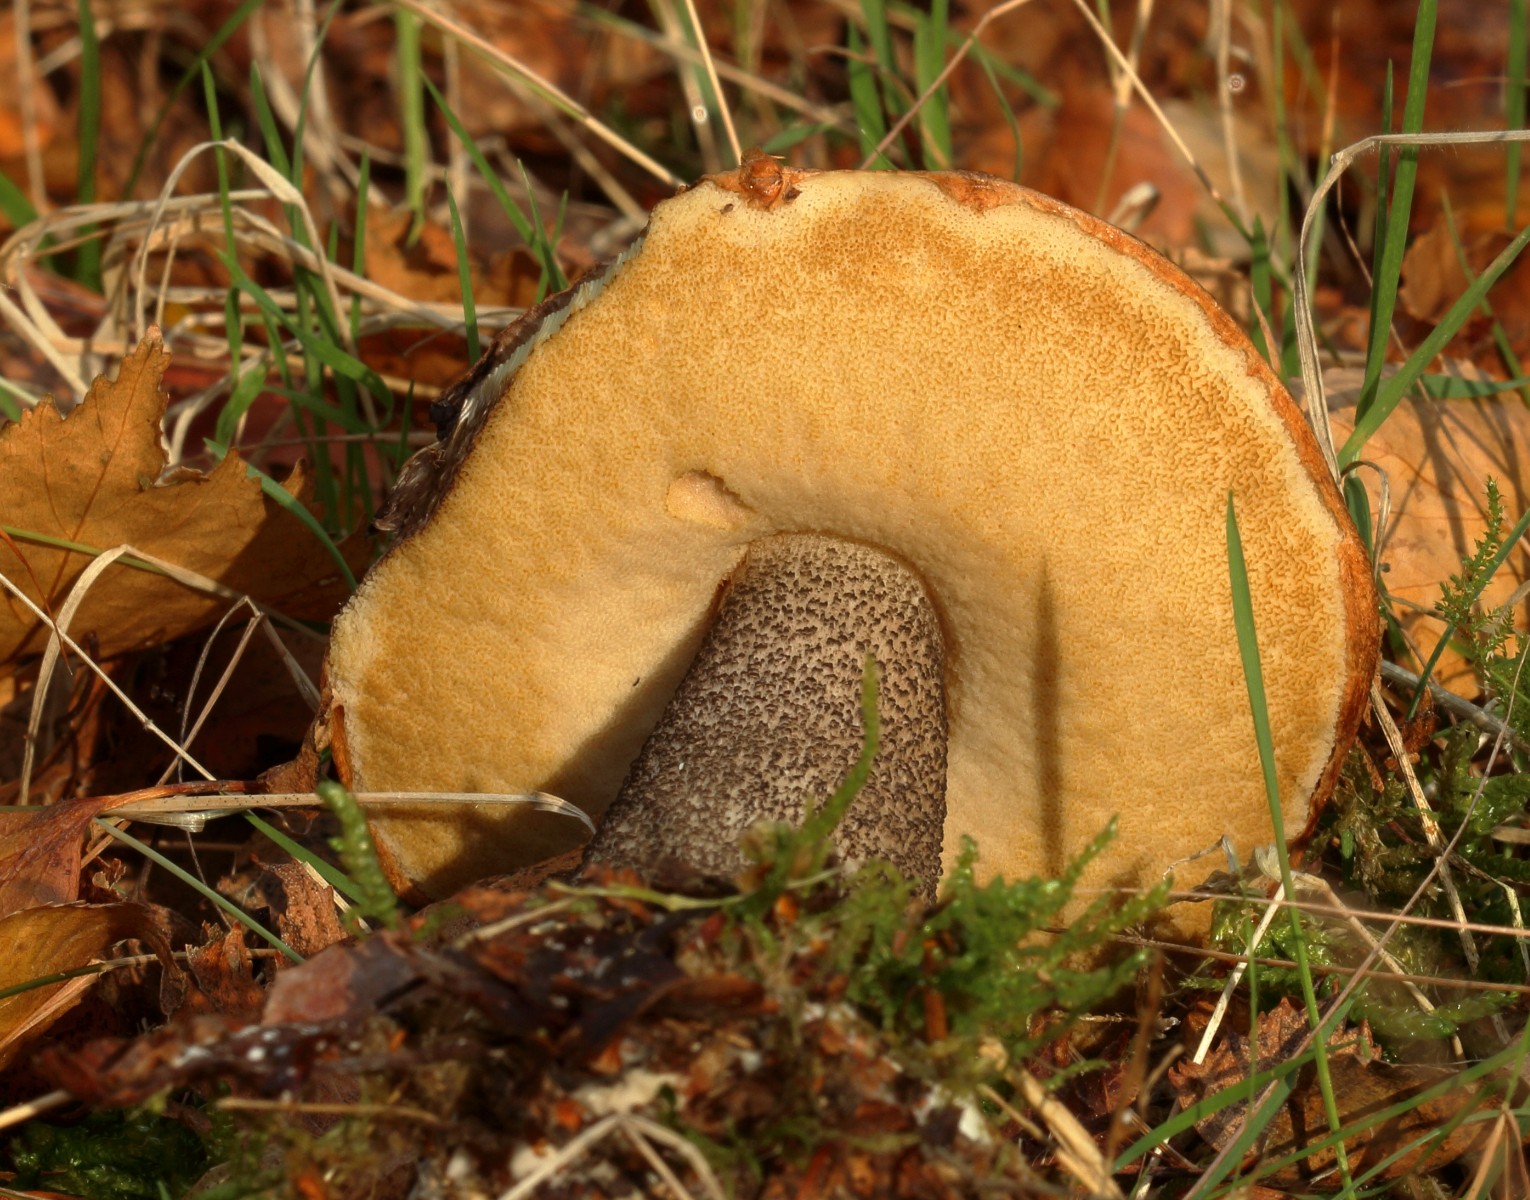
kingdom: Fungi
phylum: Basidiomycota
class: Agaricomycetes
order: Boletales
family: Boletaceae
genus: Leccinum
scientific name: Leccinum versipelle
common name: orange skælrørhat
